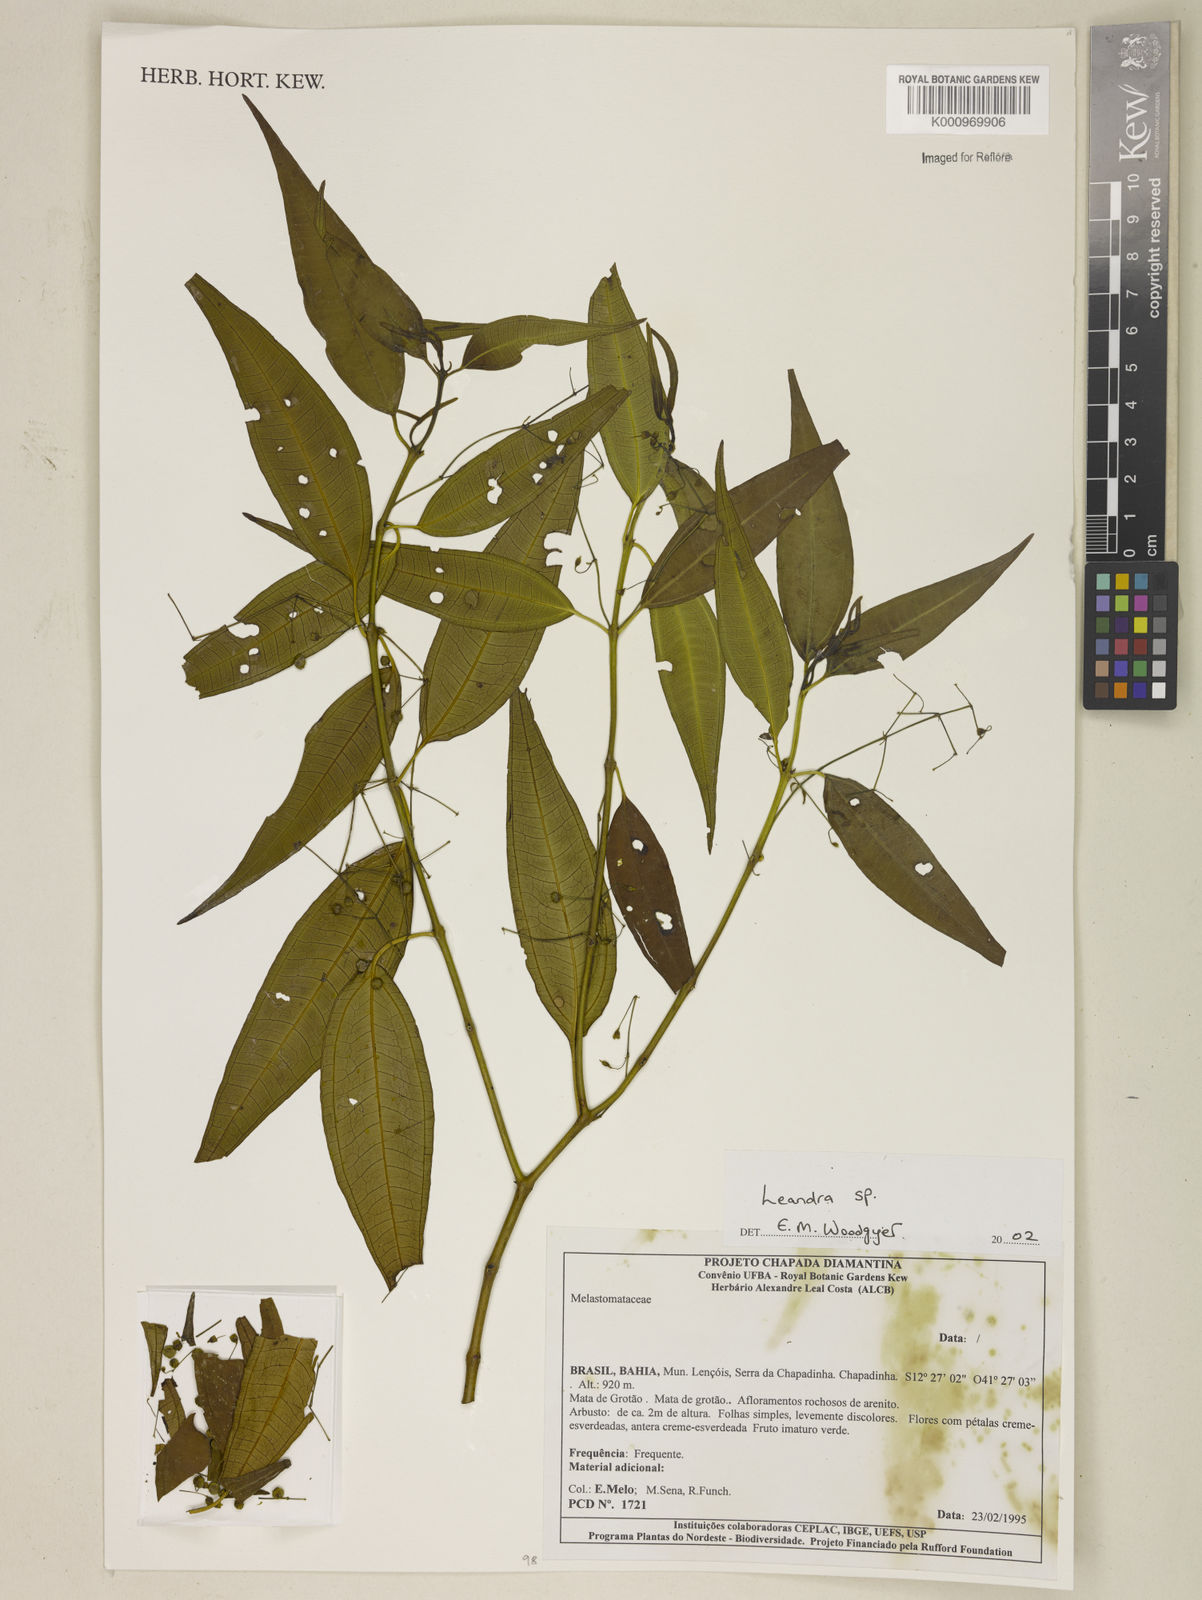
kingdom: Plantae
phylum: Tracheophyta
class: Magnoliopsida
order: Myrtales
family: Melastomataceae
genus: Miconia
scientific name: Miconia
